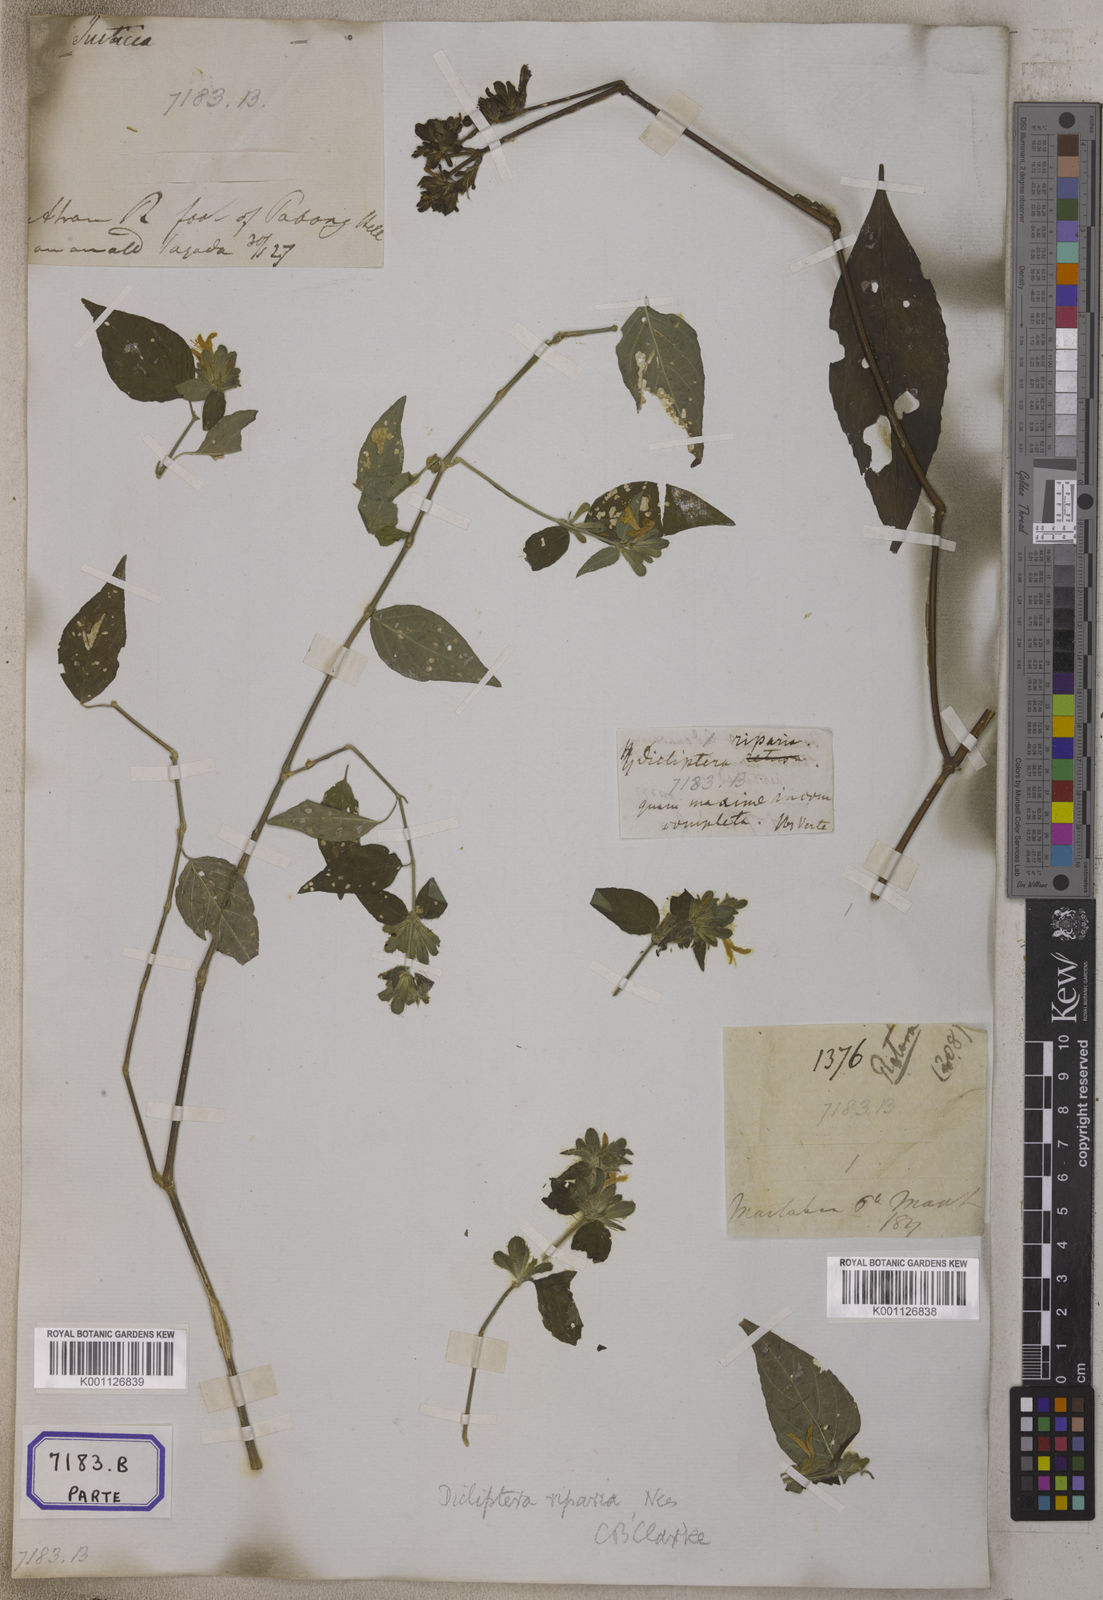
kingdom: Plantae
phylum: Tracheophyta
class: Magnoliopsida
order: Lamiales
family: Acanthaceae
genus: Dicliptera
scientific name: Dicliptera riparia
